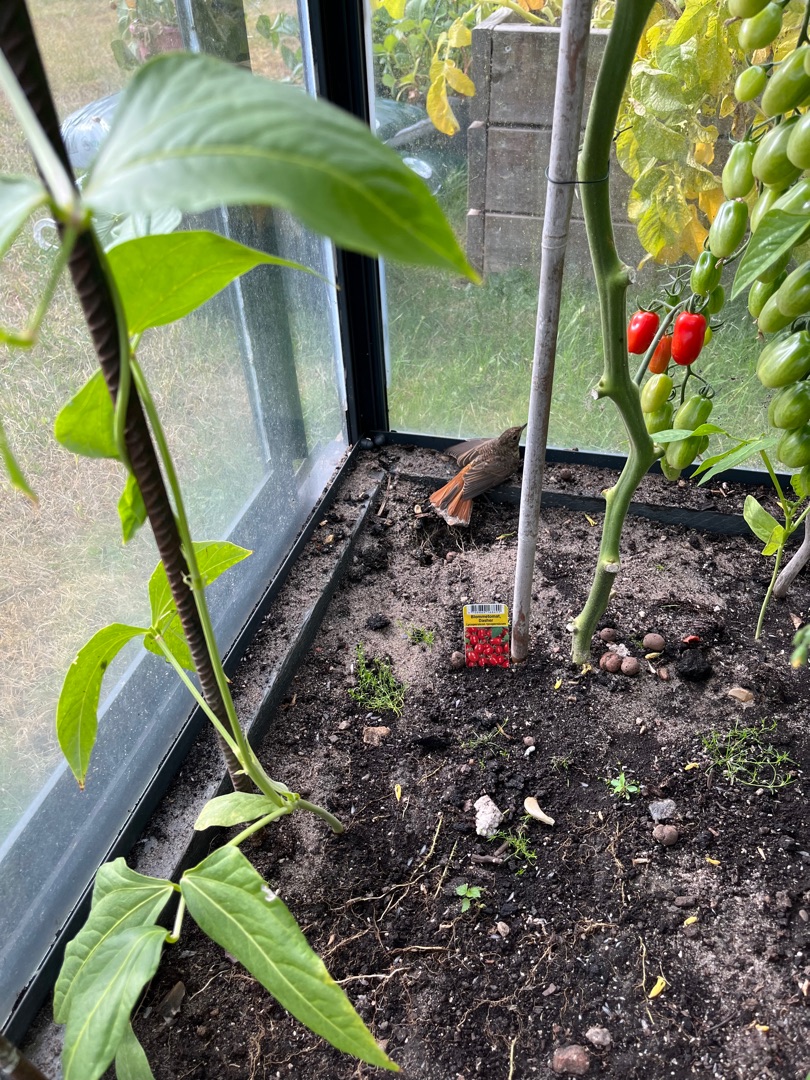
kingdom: Animalia
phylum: Chordata
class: Aves
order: Passeriformes
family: Muscicapidae
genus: Phoenicurus
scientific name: Phoenicurus ochruros
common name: Husrødstjert
